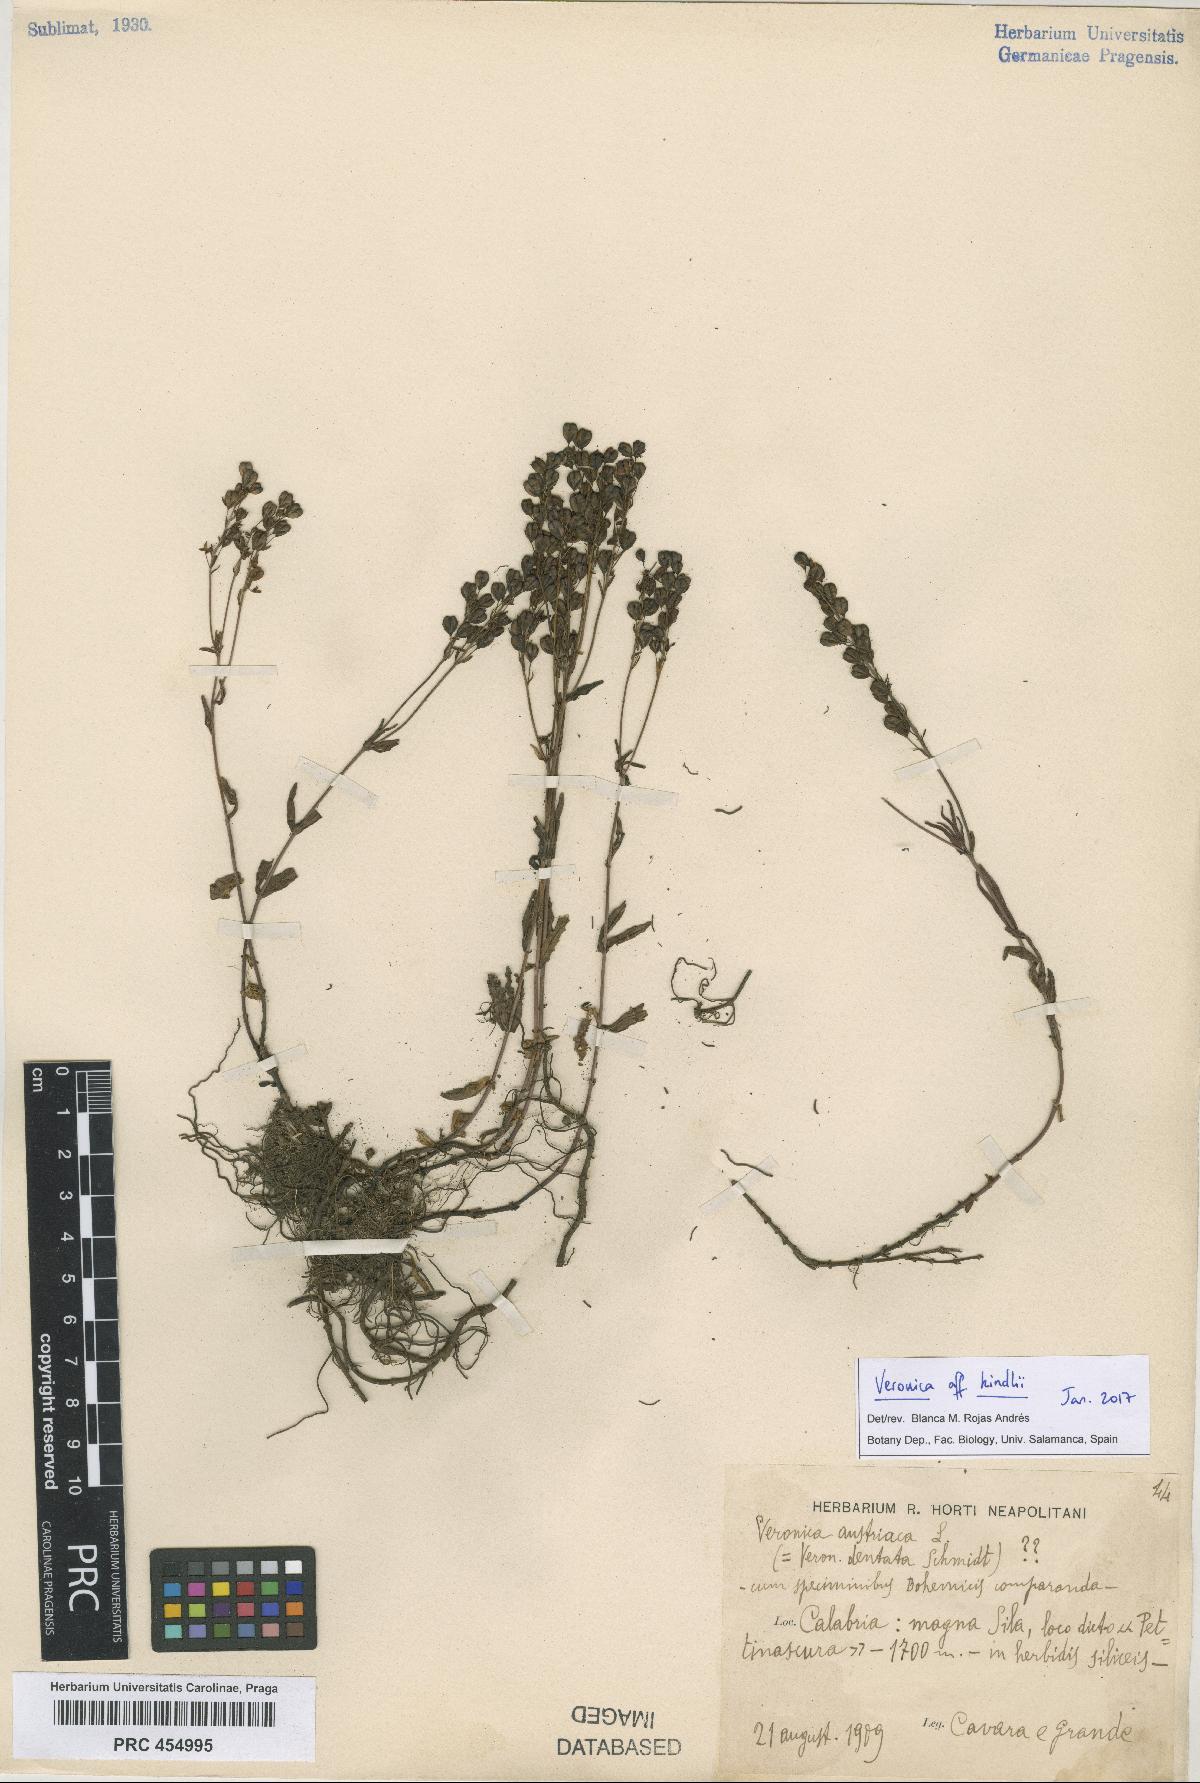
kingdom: Plantae
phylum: Tracheophyta
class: Magnoliopsida
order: Lamiales
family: Plantaginaceae
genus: Veronica
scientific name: Veronica orsiniana
